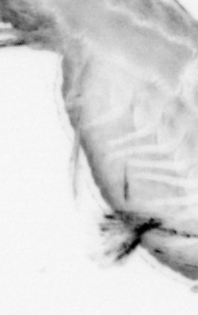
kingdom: Animalia
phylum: Annelida
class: Polychaeta
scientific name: Polychaeta
